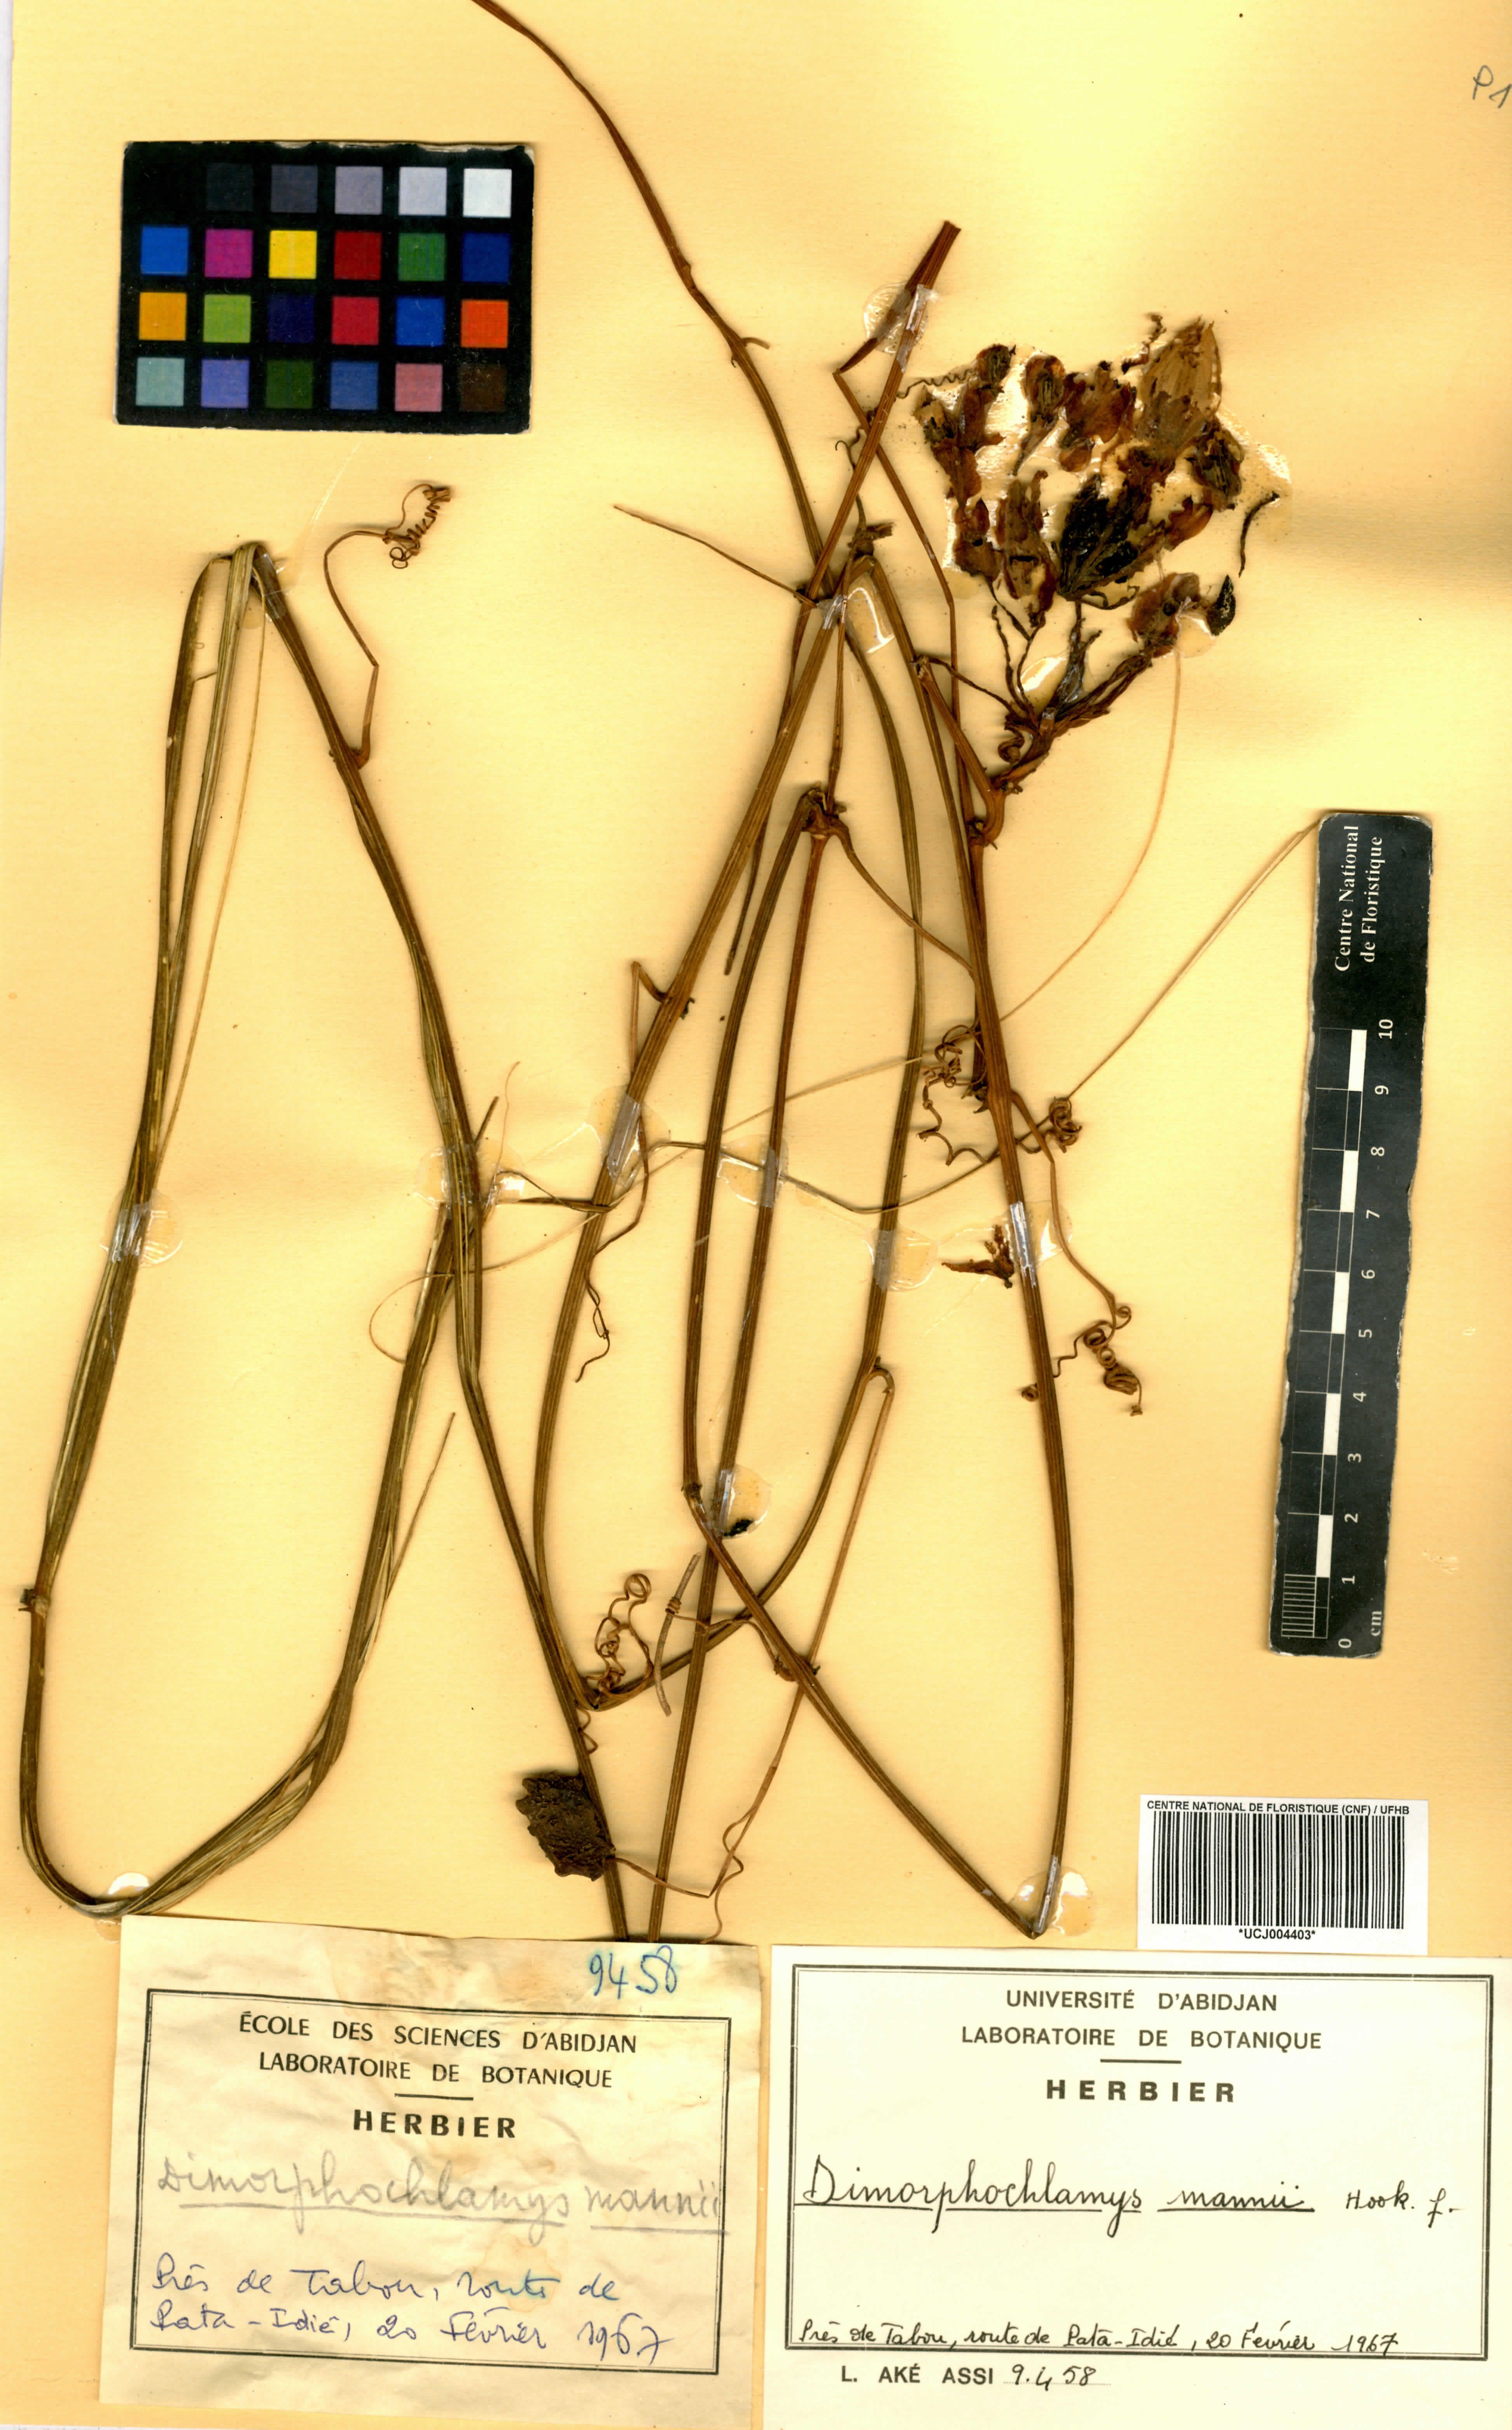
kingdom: Plantae
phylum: Tracheophyta
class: Magnoliopsida
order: Cucurbitales
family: Cucurbitaceae
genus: Momordica
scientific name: Momordica cabrae
